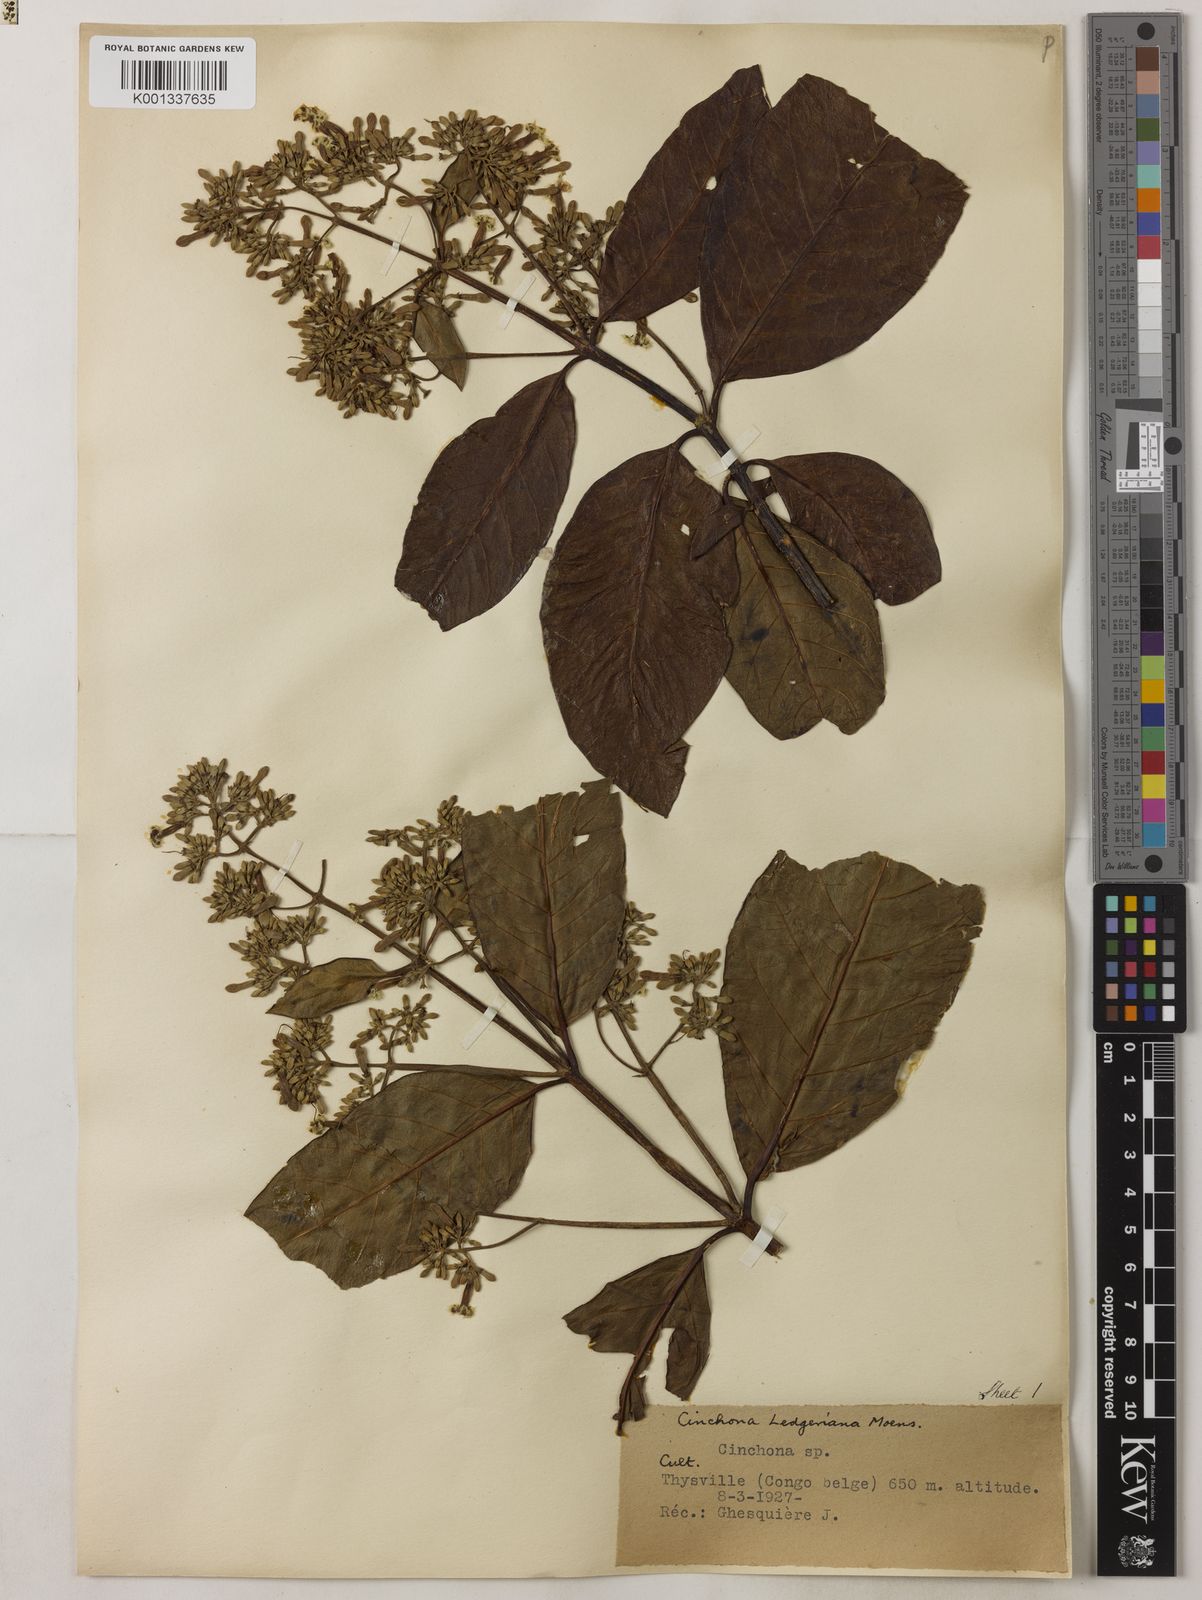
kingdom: Plantae
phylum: Tracheophyta
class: Magnoliopsida
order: Gentianales
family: Rubiaceae
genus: Cinchona
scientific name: Cinchona calisaya
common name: Ledgerbark
